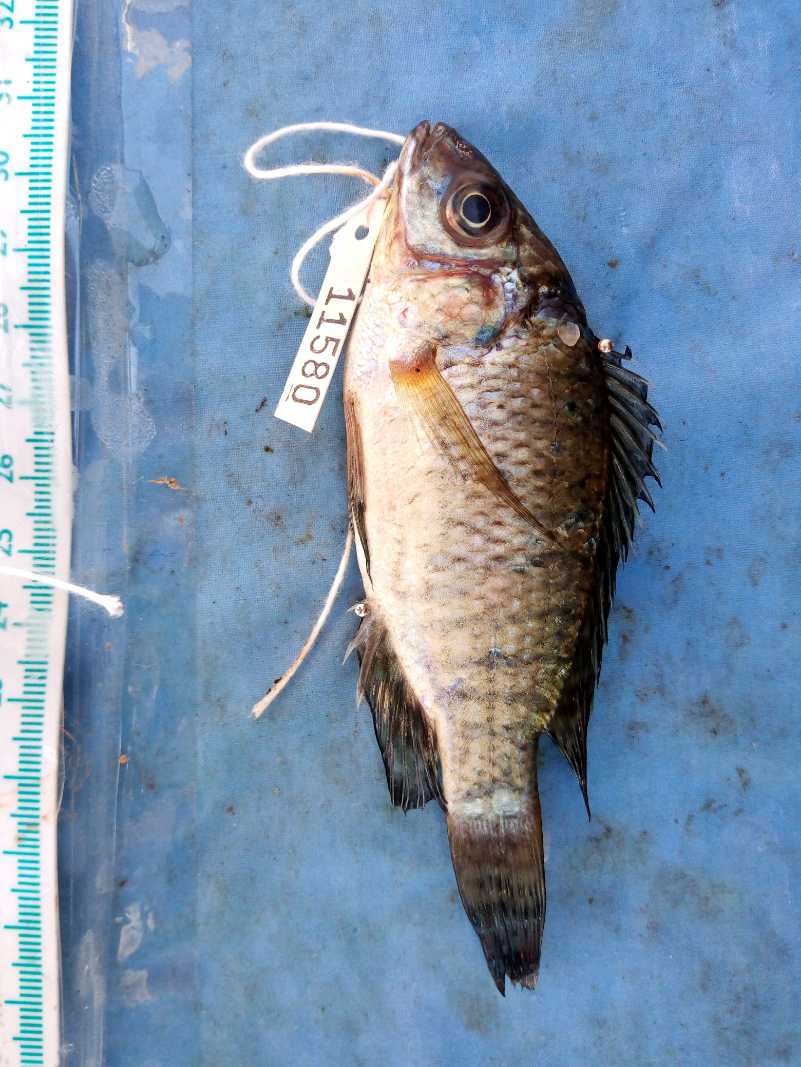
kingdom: Animalia
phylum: Chordata
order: Perciformes
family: Cichlidae
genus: Oreochromis
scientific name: Oreochromis jipe
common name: Jipe tilapia
